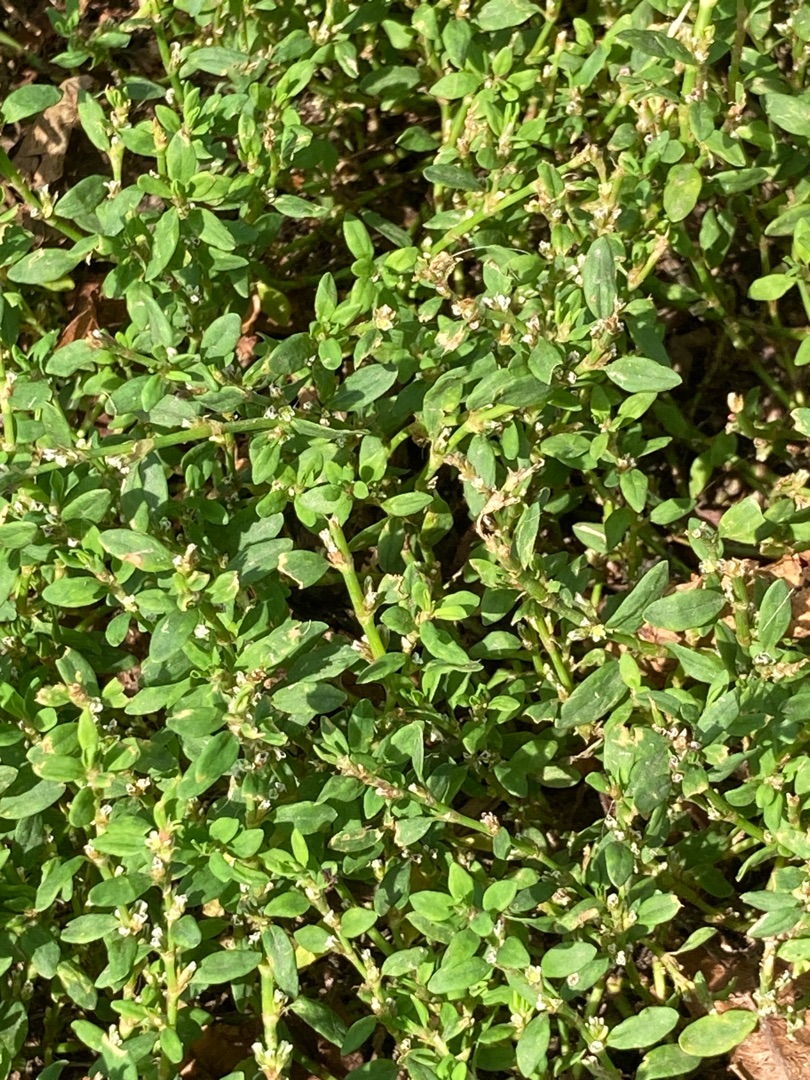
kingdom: Plantae
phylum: Tracheophyta
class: Magnoliopsida
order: Caryophyllales
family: Polygonaceae
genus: Polygonum
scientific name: Polygonum aviculare
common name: Vej-pileurt
